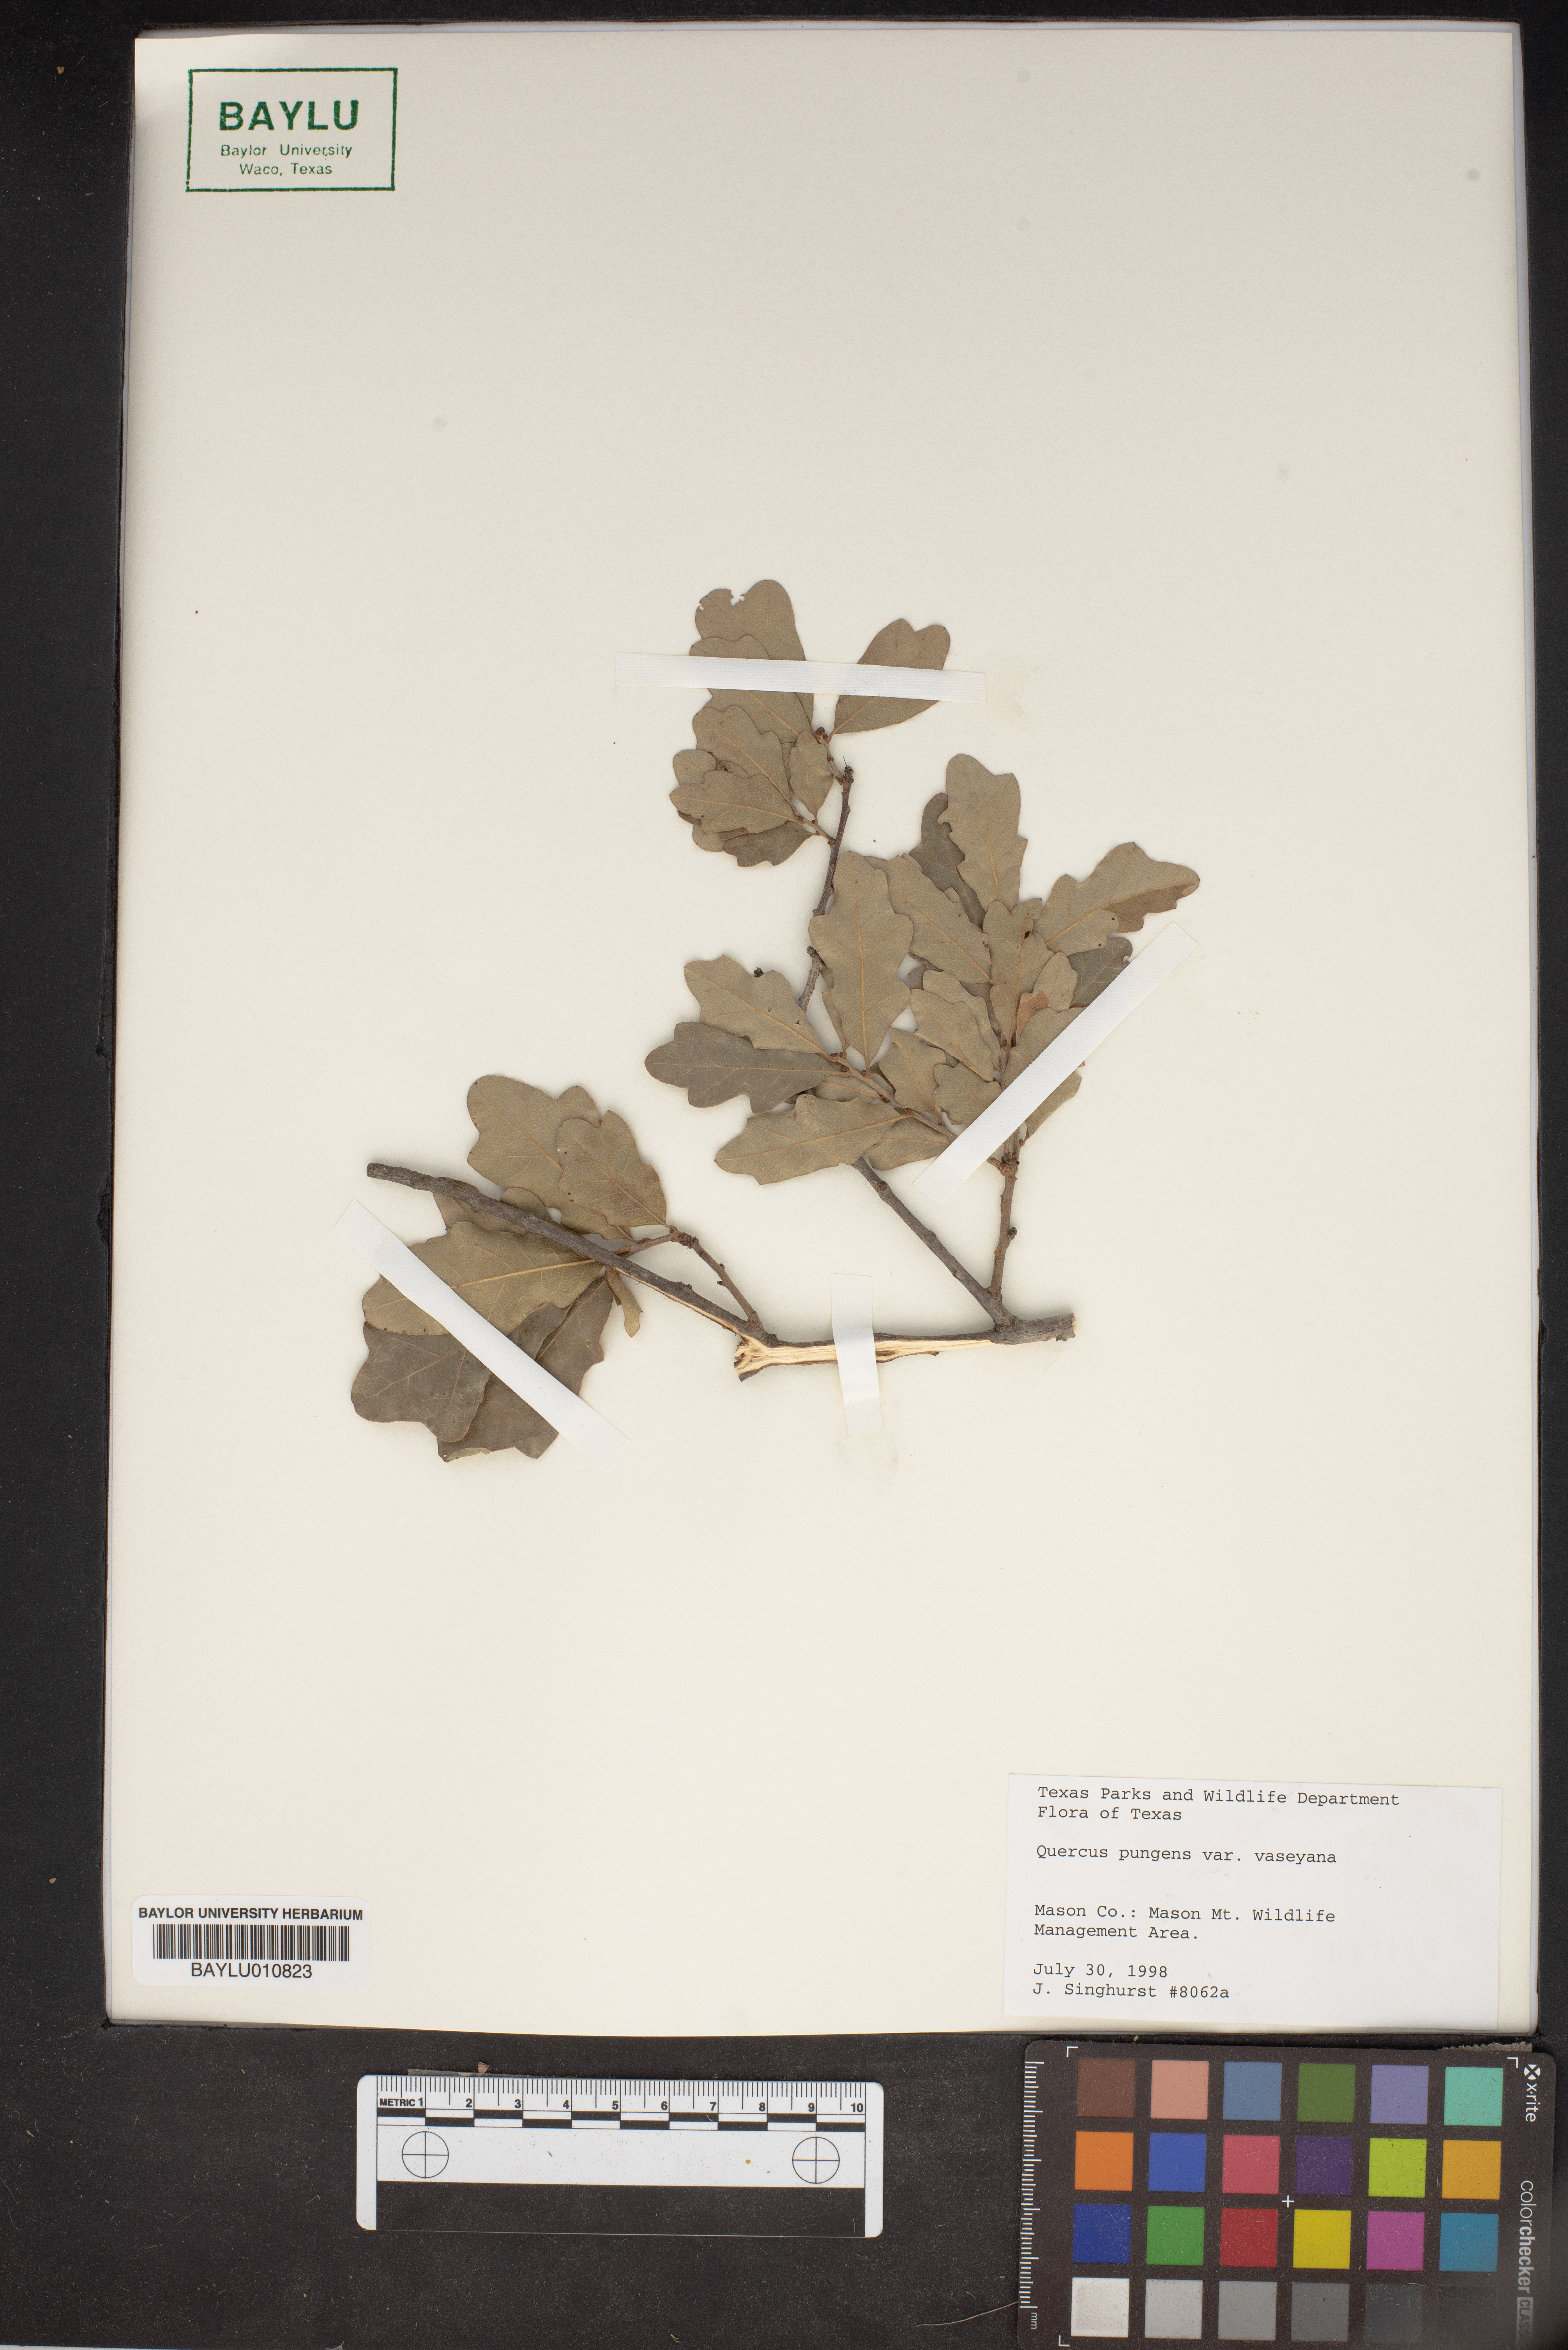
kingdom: Plantae
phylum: Tracheophyta
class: Magnoliopsida
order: Fagales
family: Fagaceae
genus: Quercus
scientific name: Quercus vaseyana
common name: Sandpaper oak
